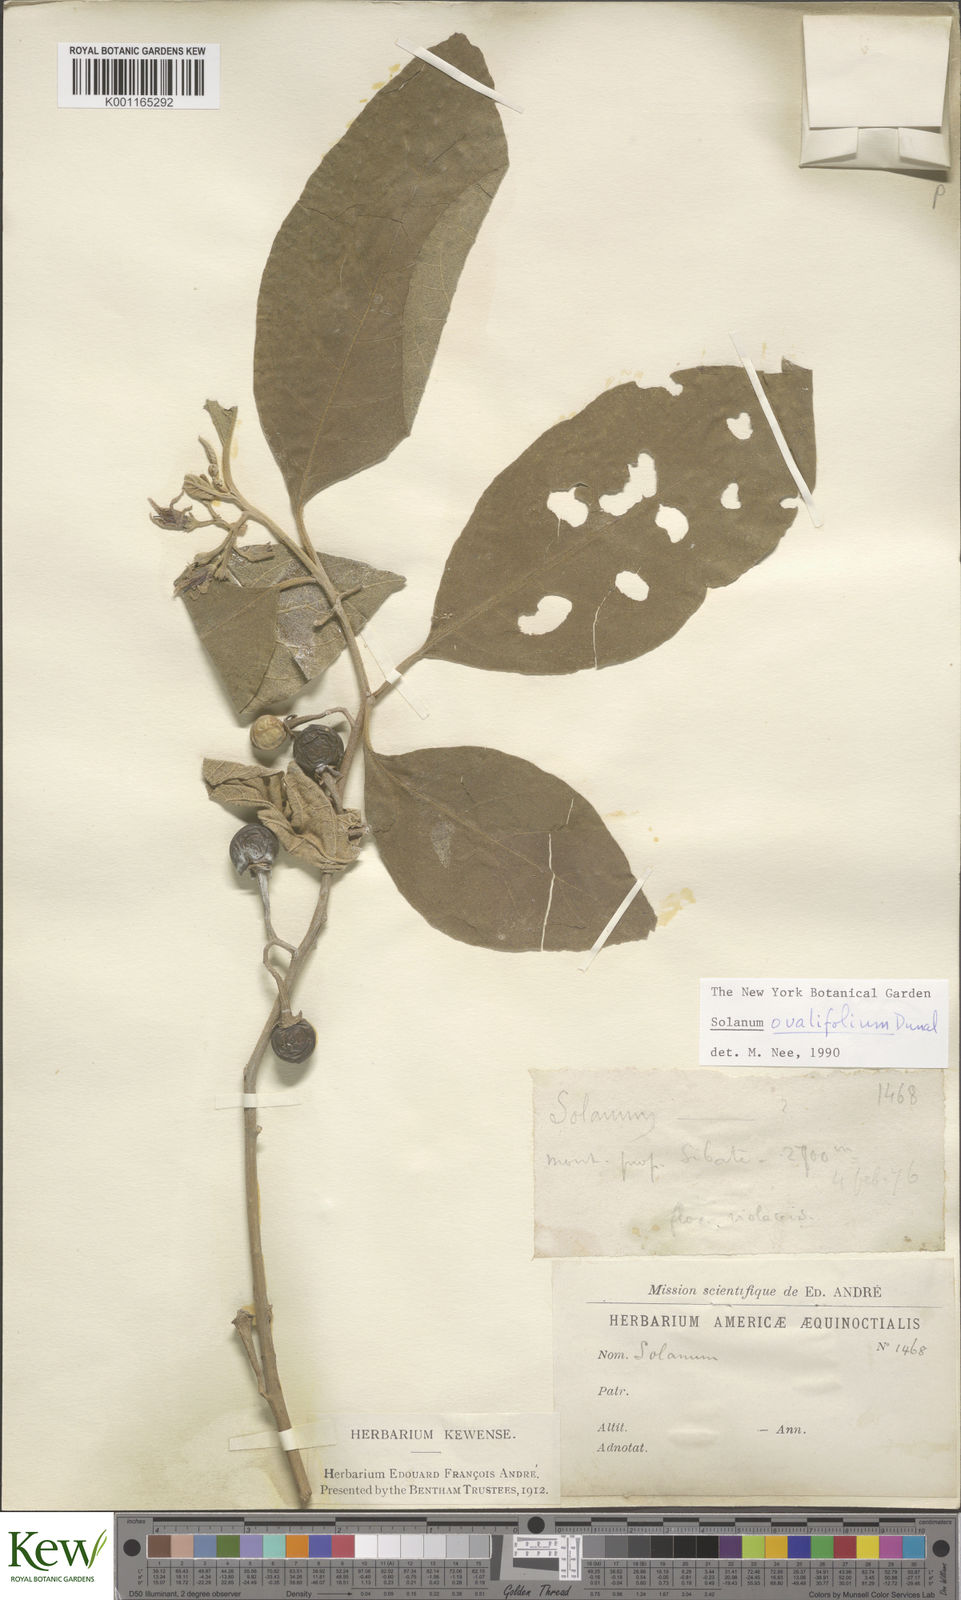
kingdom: Plantae
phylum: Tracheophyta
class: Magnoliopsida
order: Solanales
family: Solanaceae
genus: Solanum
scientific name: Solanum ovalifolium
